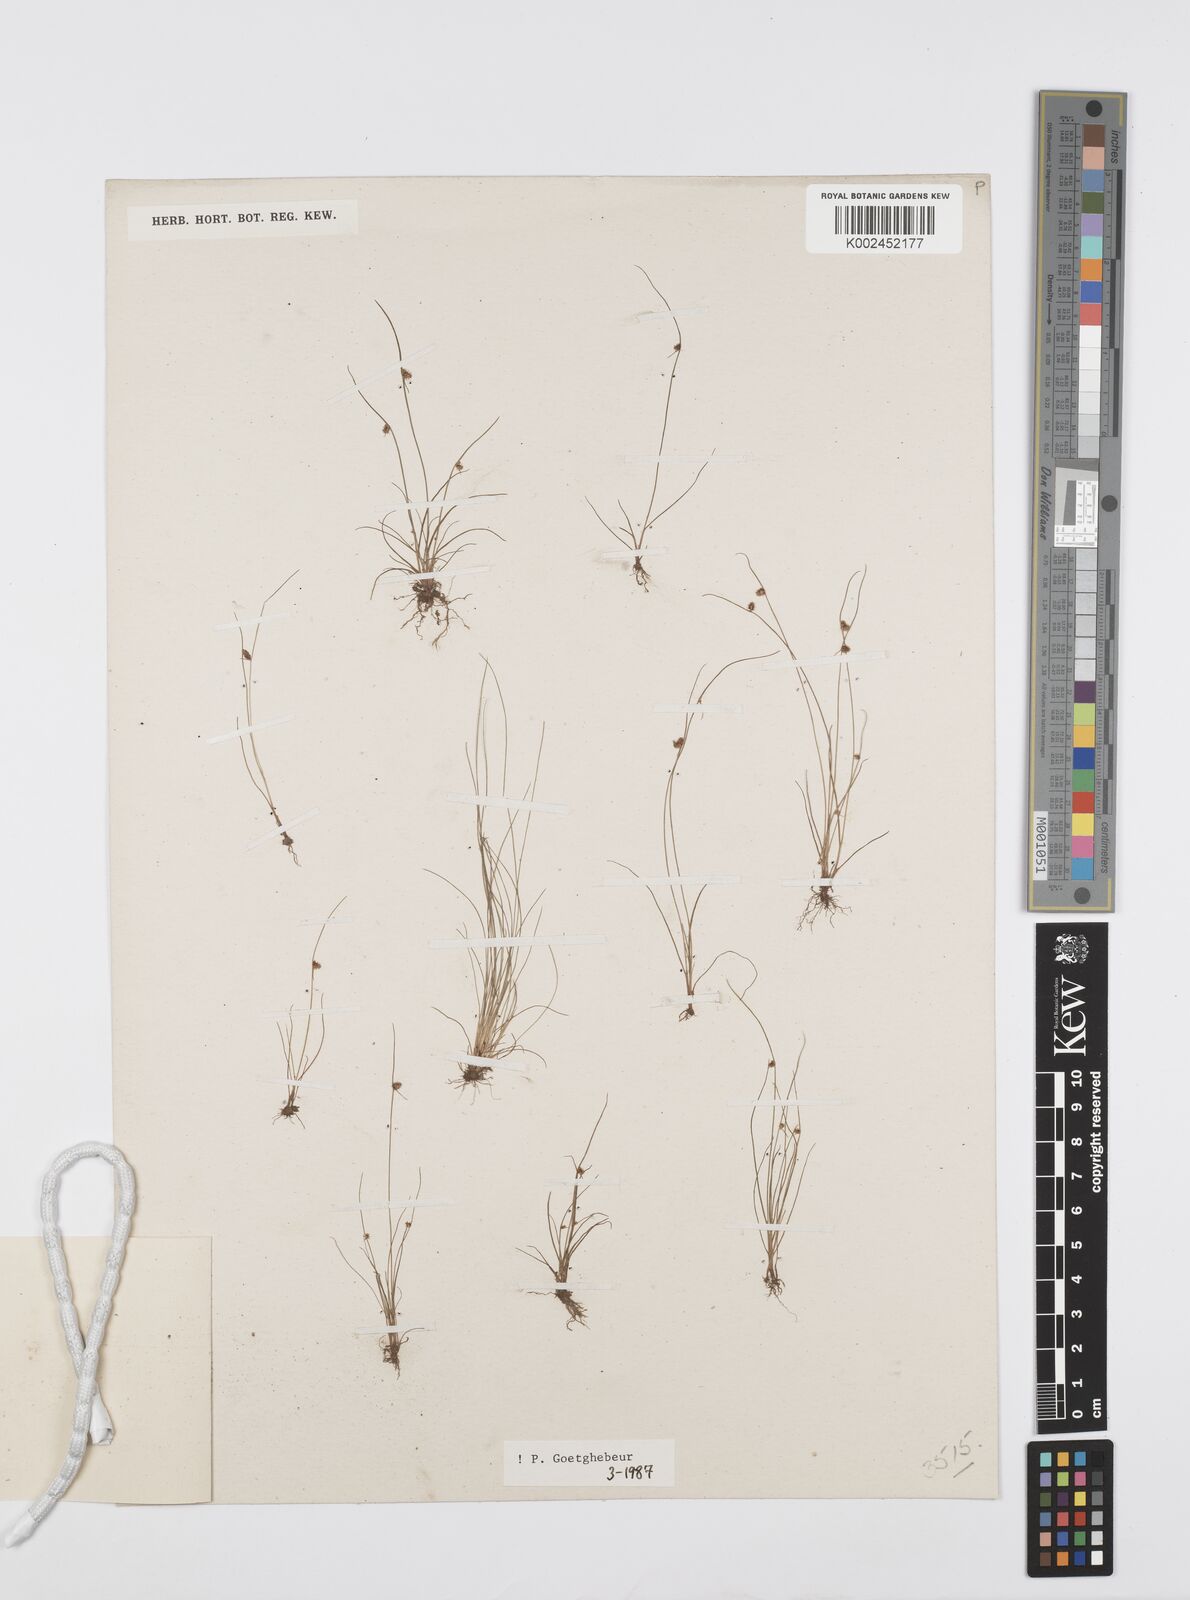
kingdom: Plantae
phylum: Tracheophyta
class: Liliopsida
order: Poales
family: Cyperaceae
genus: Cyperus
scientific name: Cyperus squarrosus
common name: Awned cyperus
